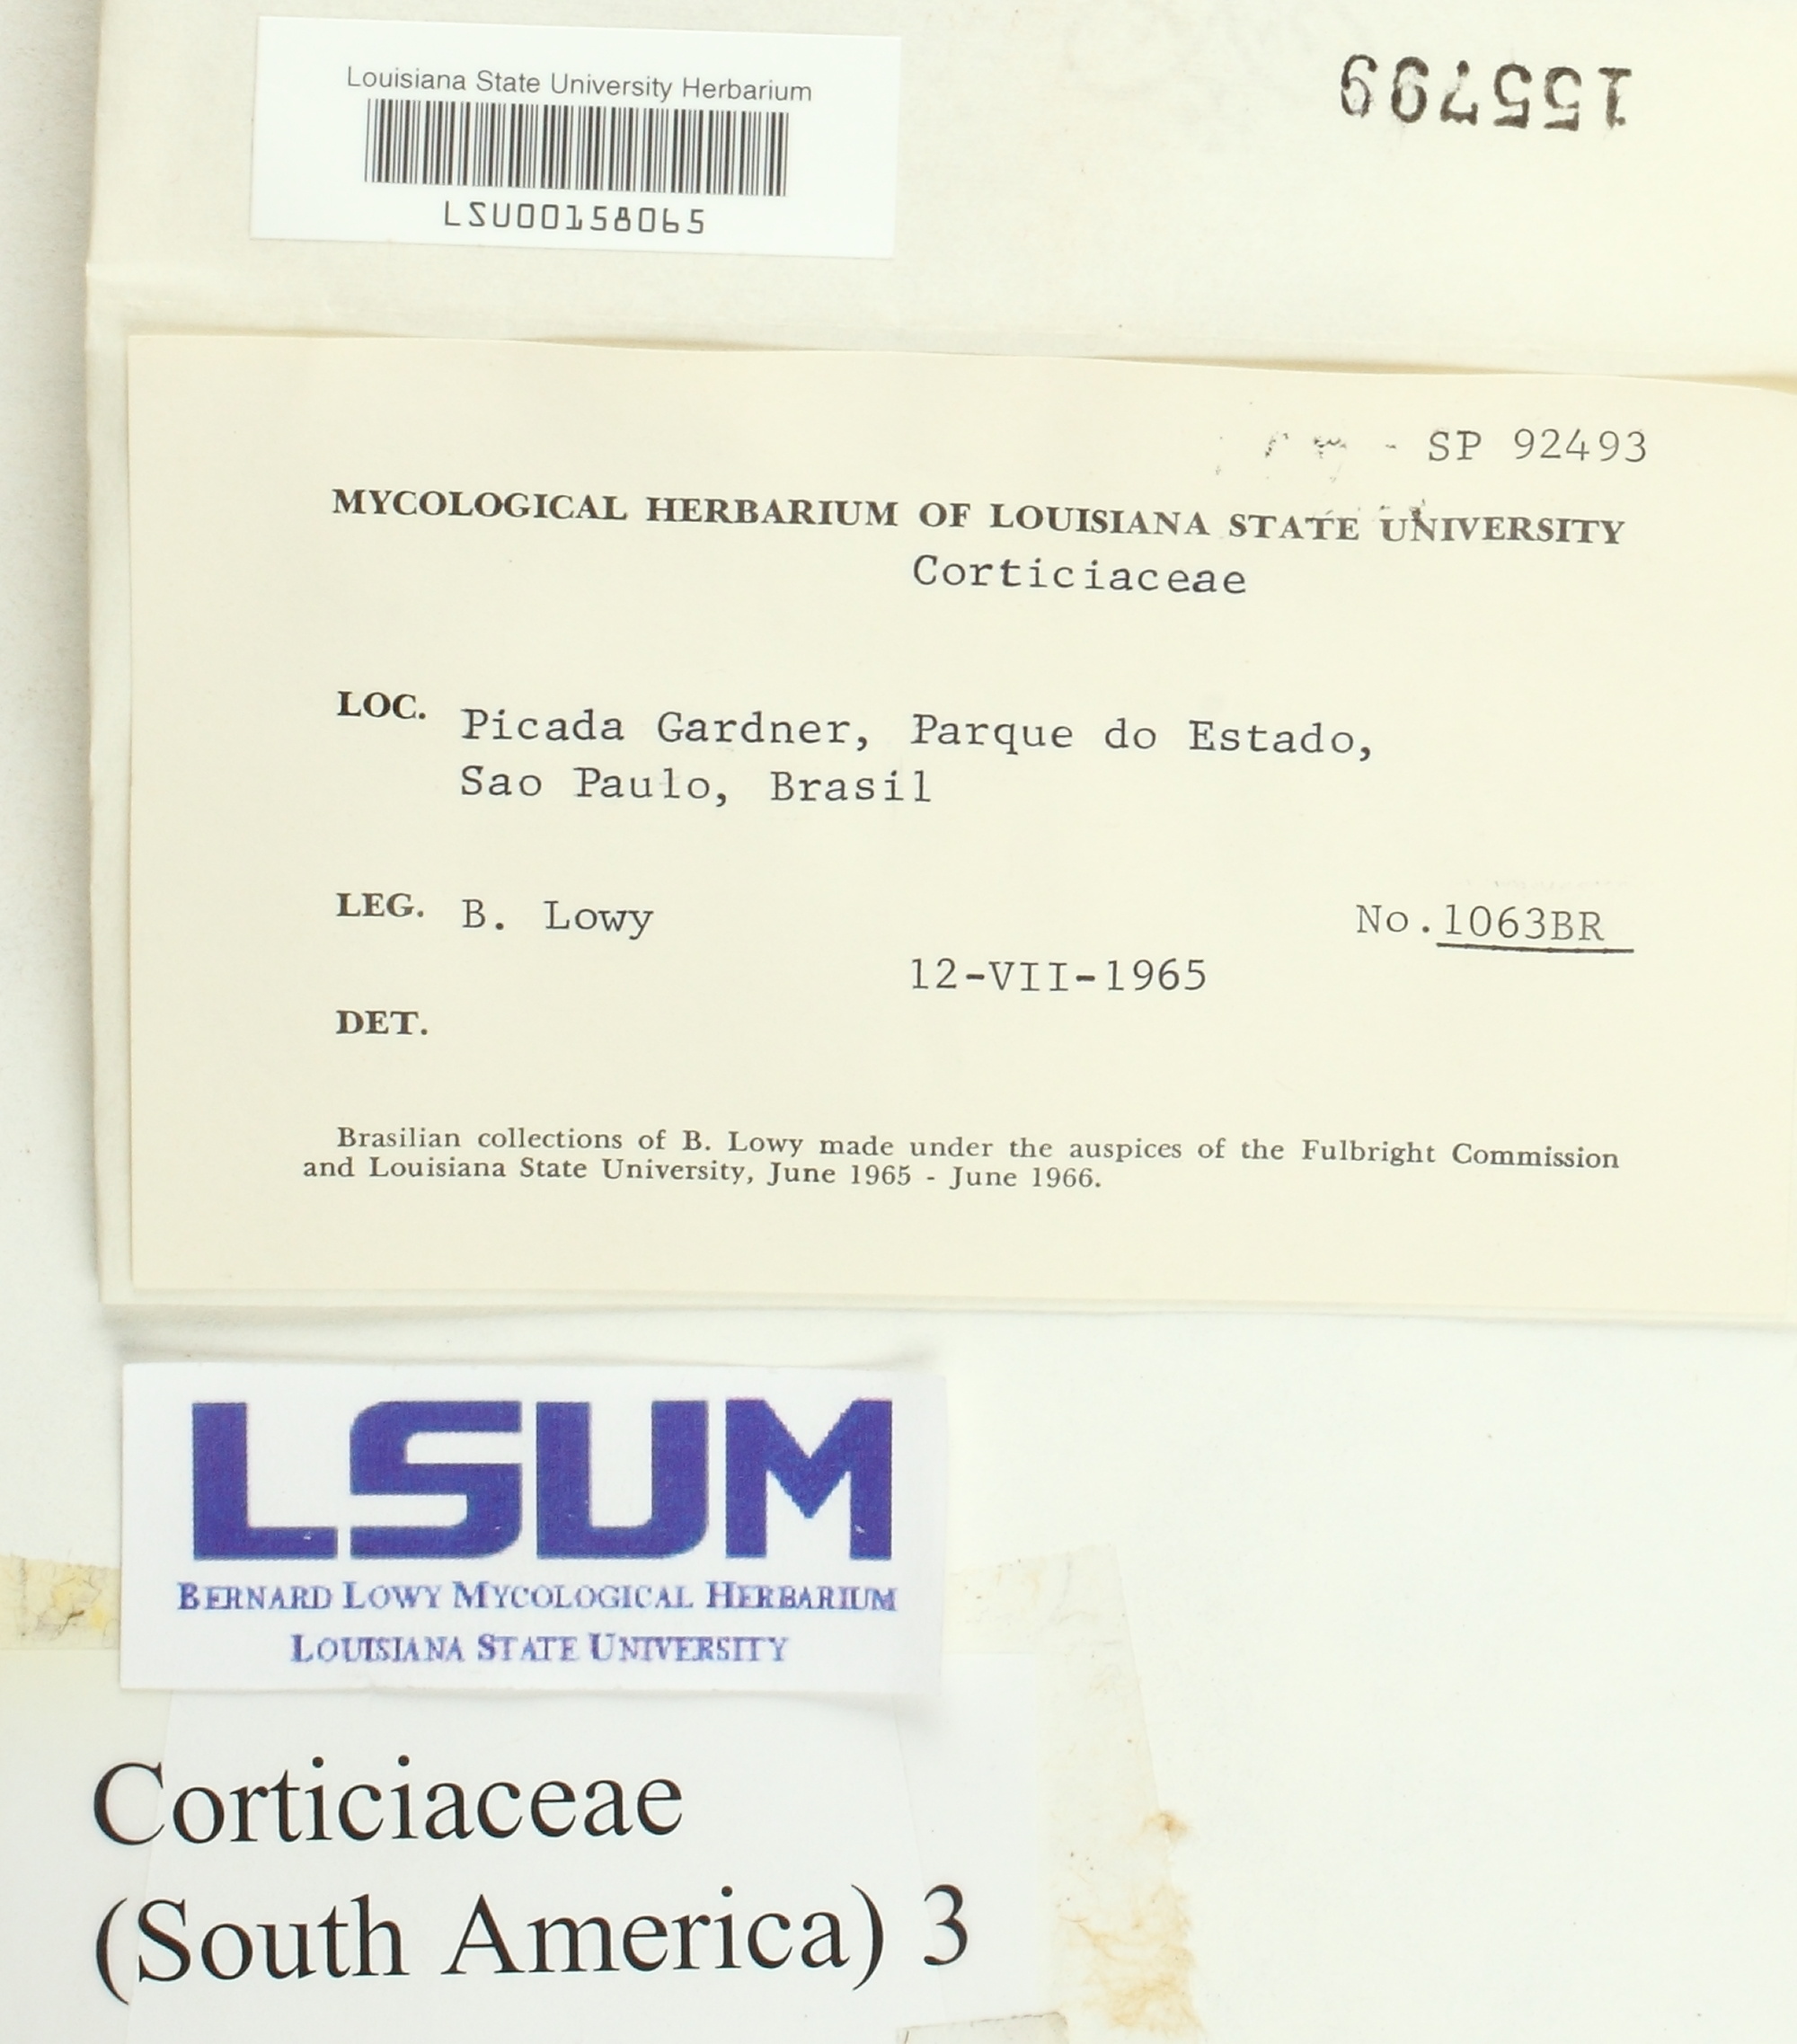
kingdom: Fungi
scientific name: Fungi
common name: Fungi
